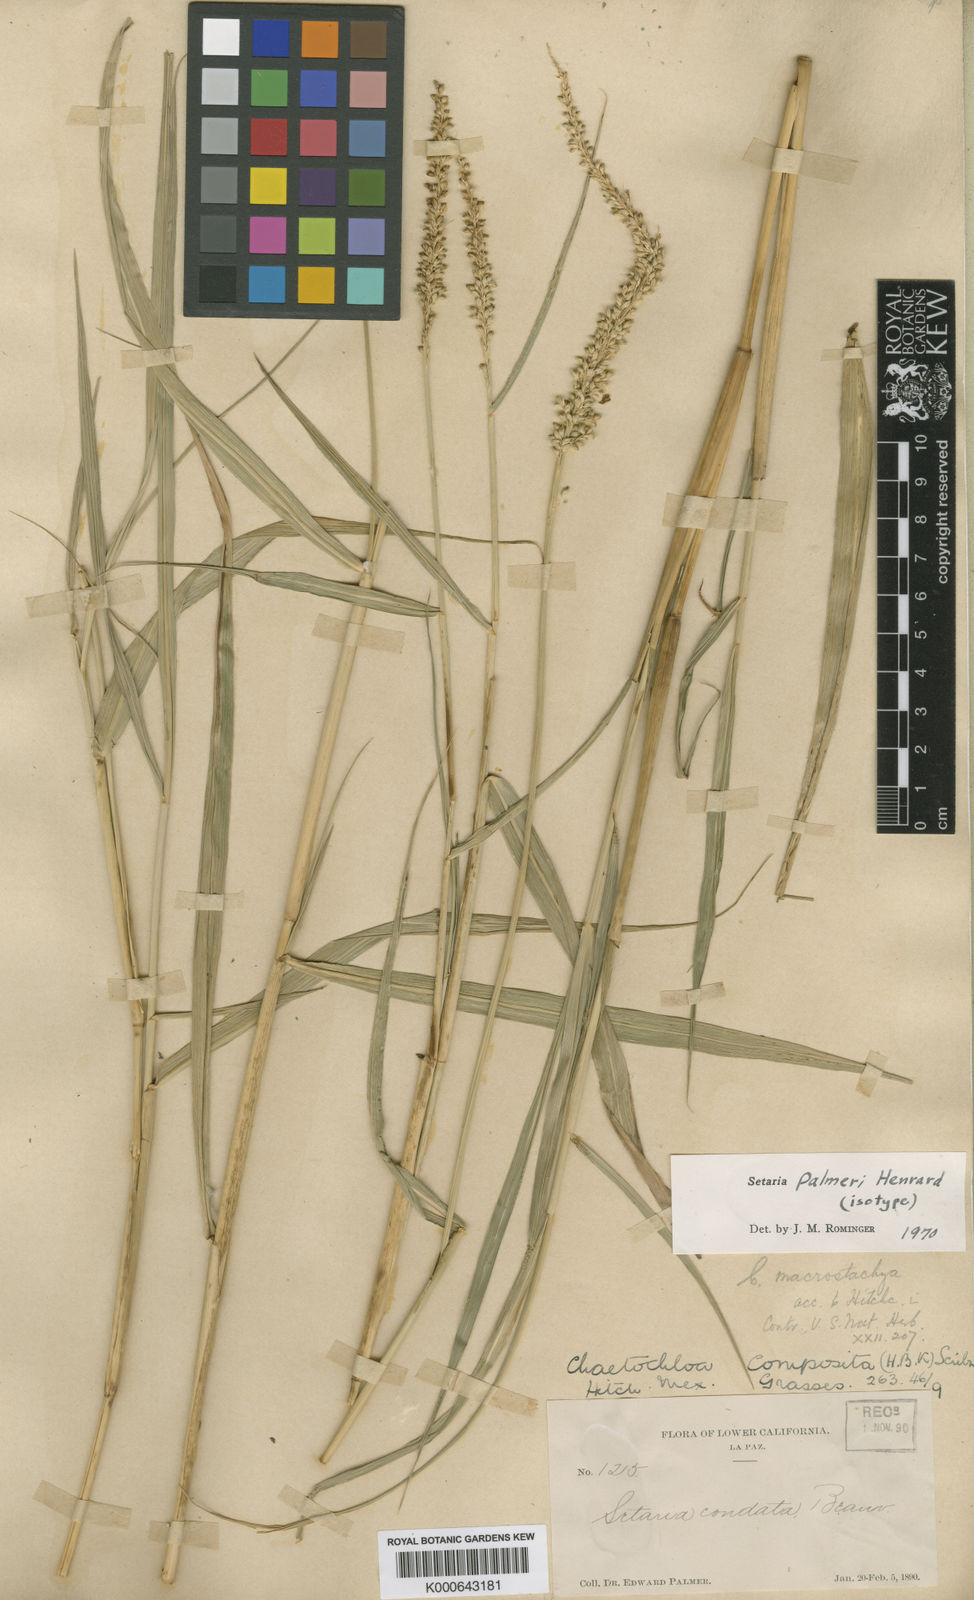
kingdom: Plantae
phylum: Tracheophyta
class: Liliopsida
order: Poales
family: Poaceae
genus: Setaria
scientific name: Setaria palmeri
